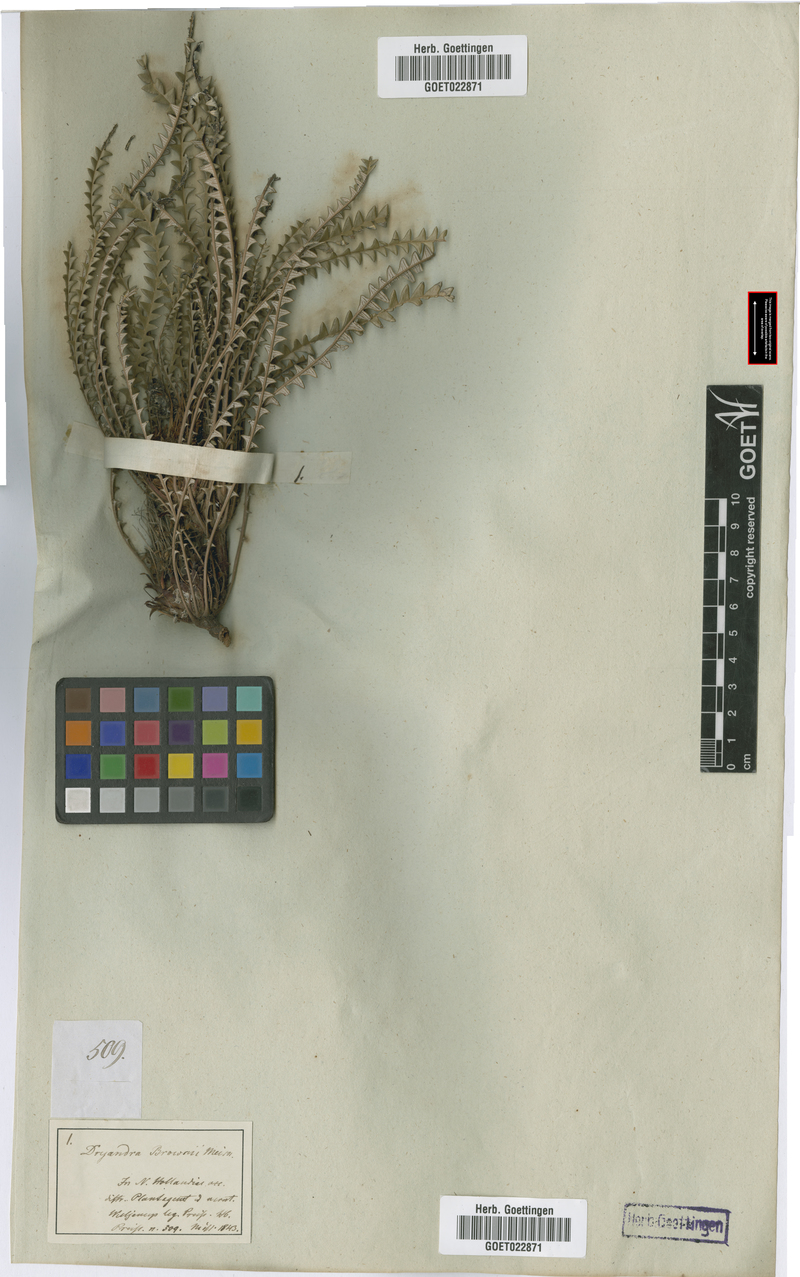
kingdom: Plantae
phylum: Tracheophyta
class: Magnoliopsida
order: Proteales
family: Proteaceae
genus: Banksia
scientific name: Banksia brunnea
